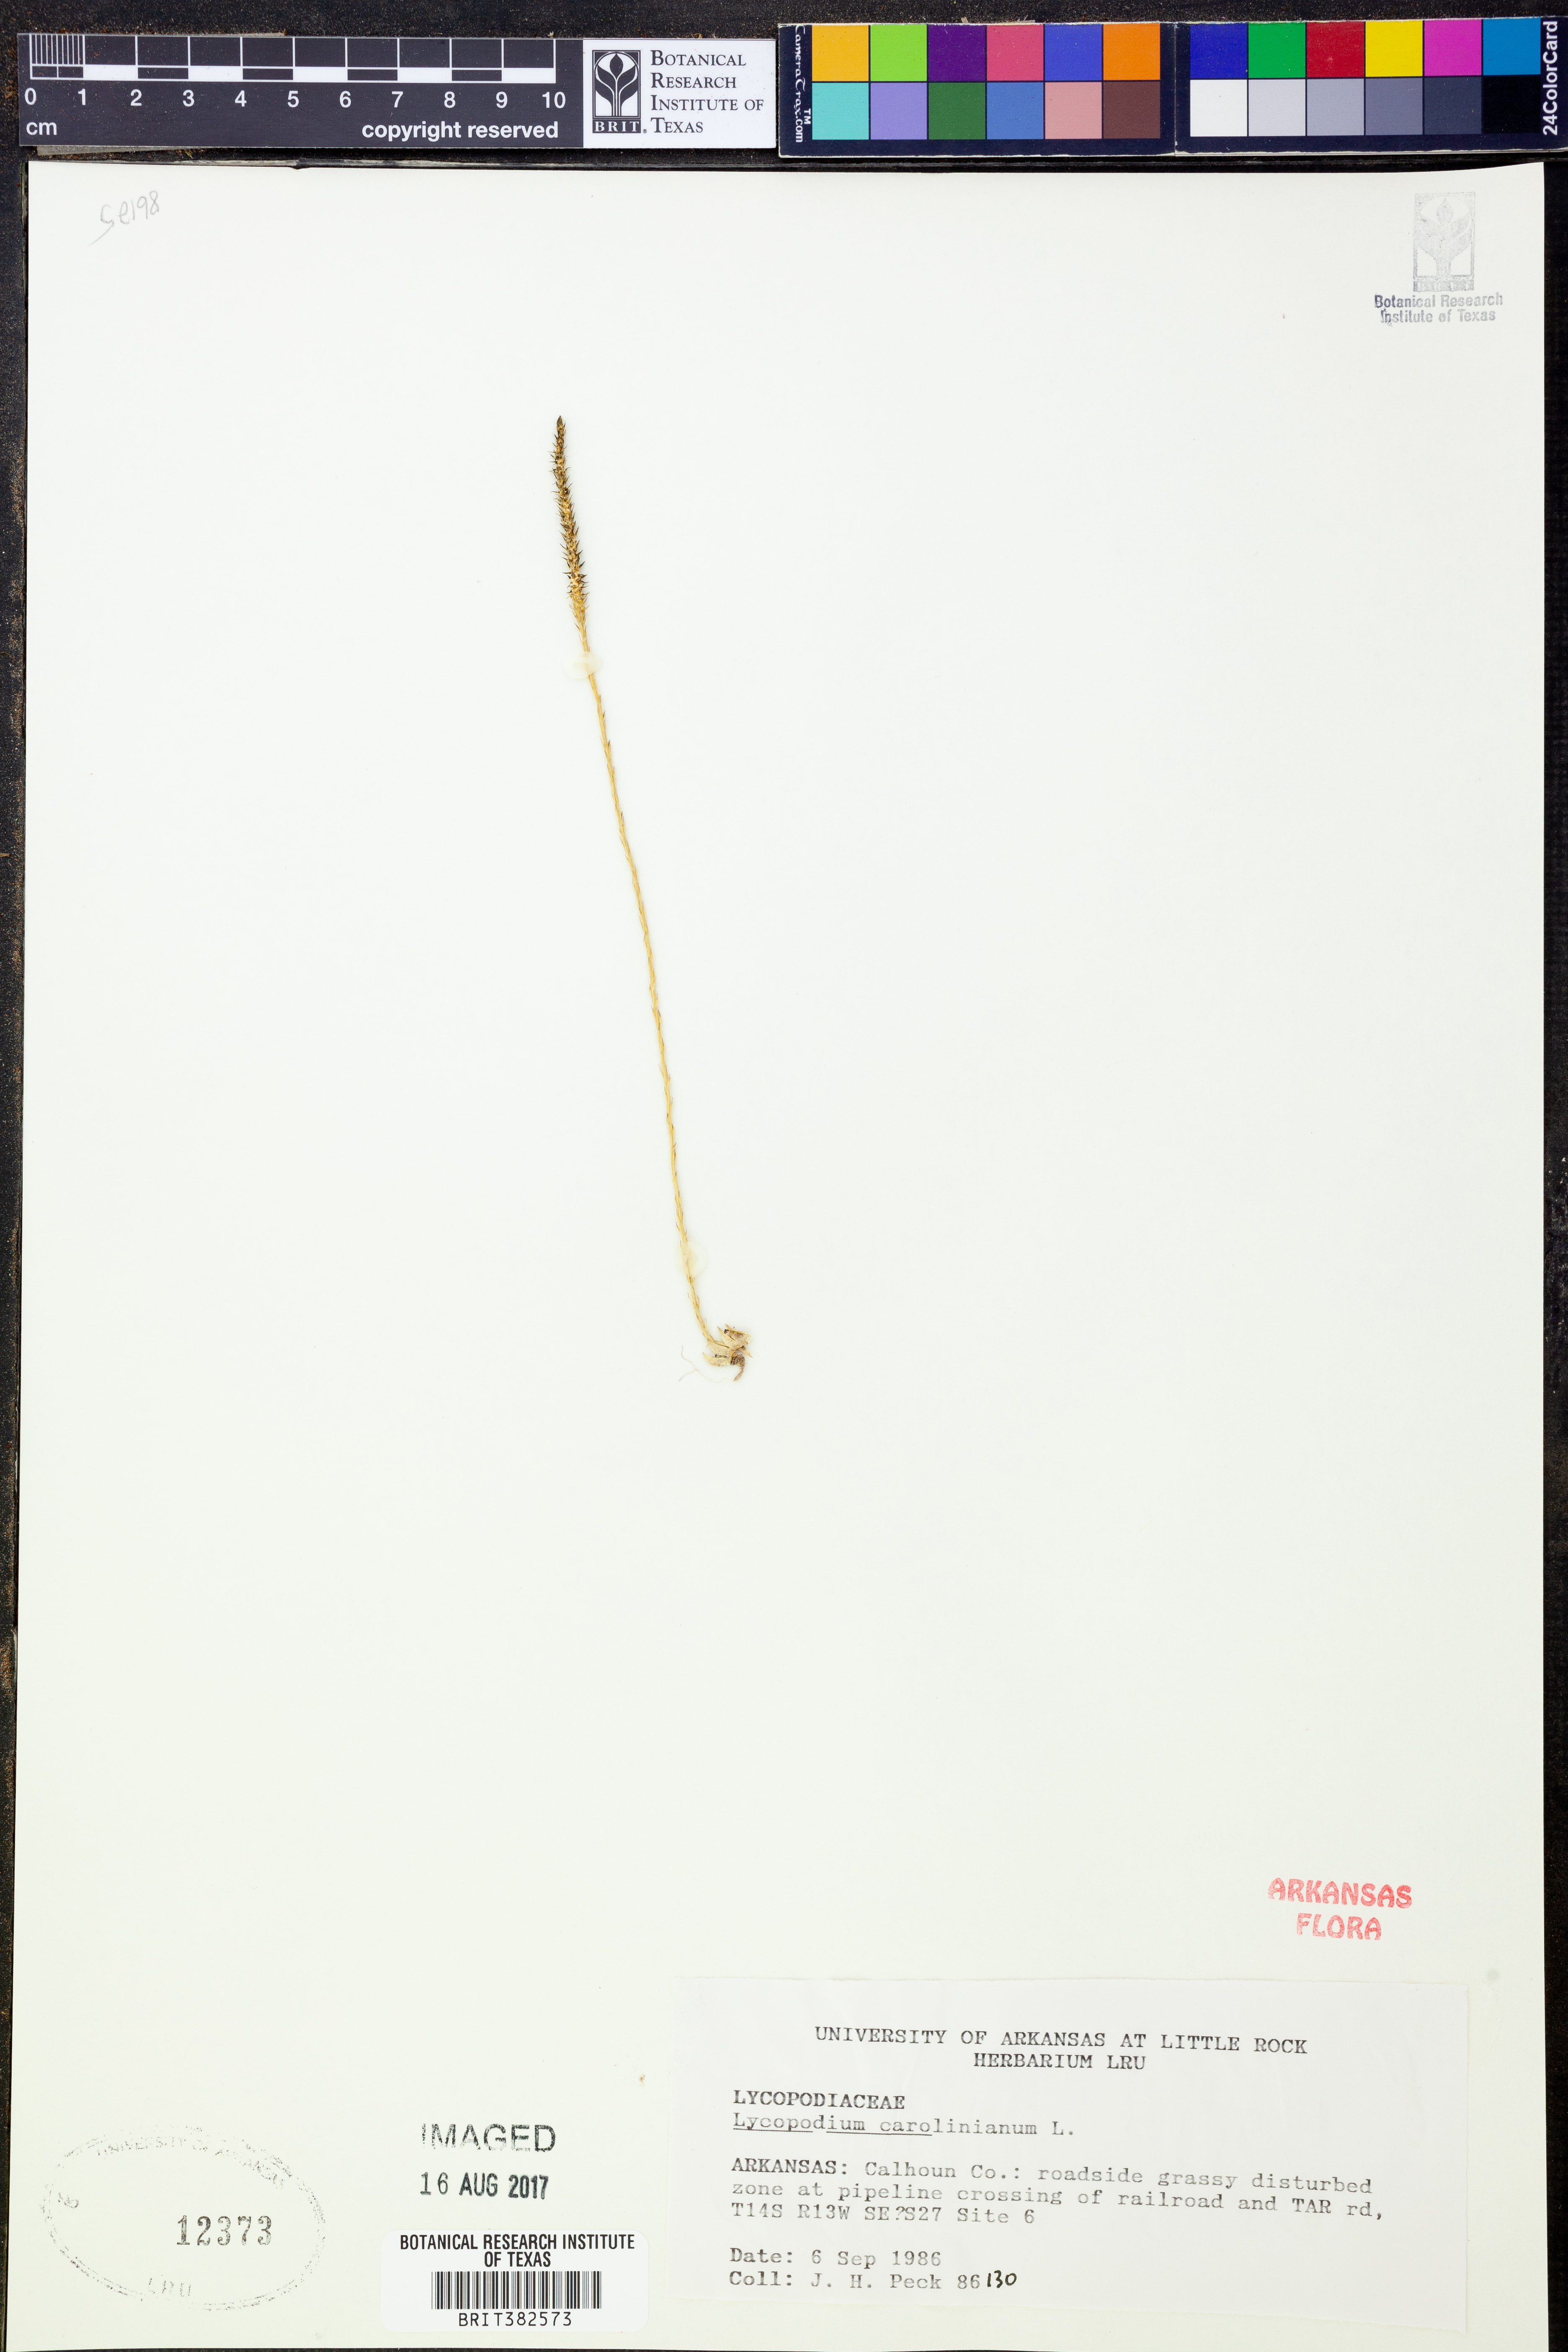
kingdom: Plantae
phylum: Tracheophyta
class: Lycopodiopsida
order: Lycopodiales
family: Lycopodiaceae
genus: Pseudolycopodiella
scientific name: Pseudolycopodiella caroliniana
